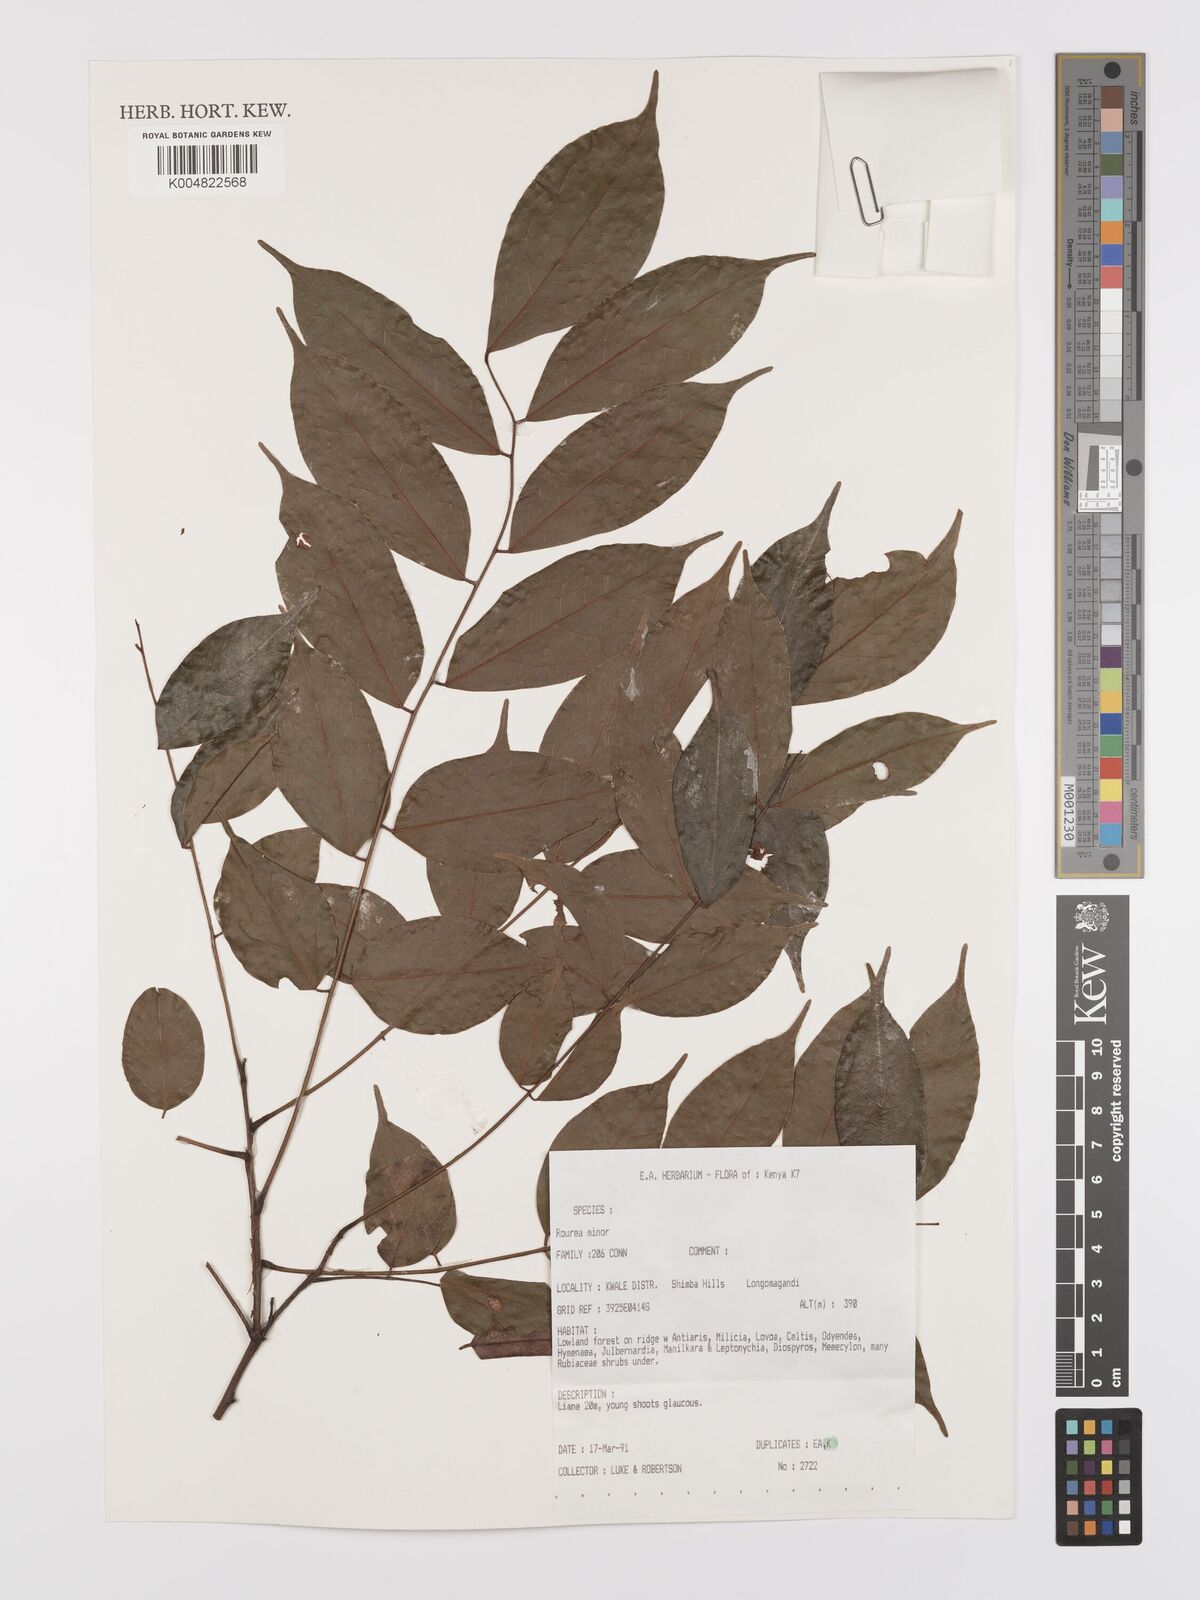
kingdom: Plantae
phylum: Tracheophyta
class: Magnoliopsida
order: Oxalidales
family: Connaraceae
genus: Rourea
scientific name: Rourea minor
